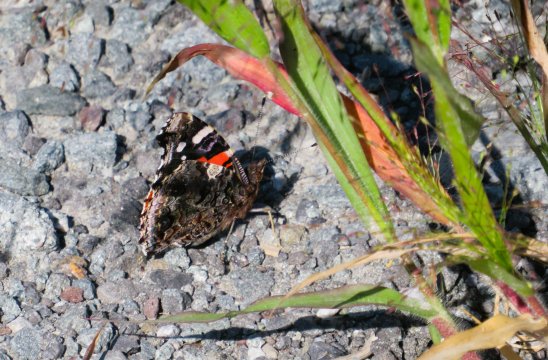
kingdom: Animalia
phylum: Arthropoda
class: Insecta
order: Lepidoptera
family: Nymphalidae
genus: Vanessa
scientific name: Vanessa atalanta
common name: Red Admiral
